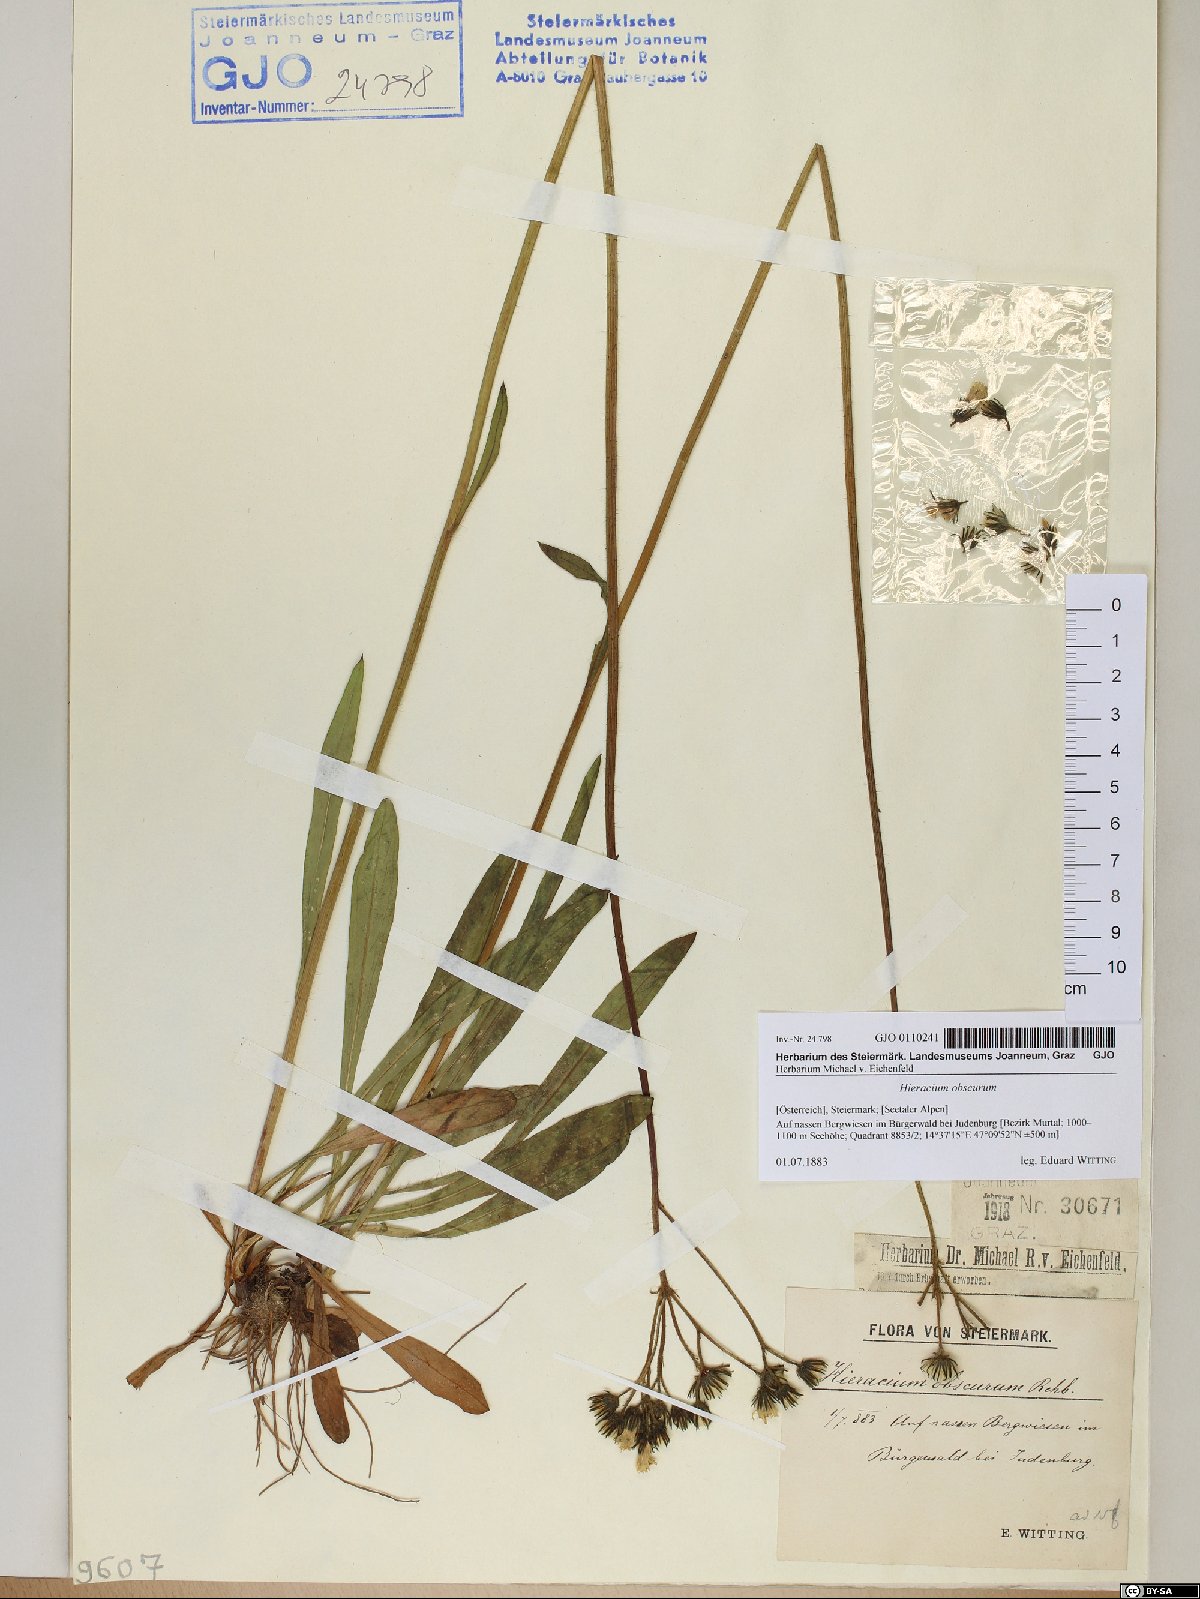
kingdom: Plantae
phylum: Tracheophyta
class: Magnoliopsida
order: Asterales
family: Asteraceae
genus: Pilosella
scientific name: Pilosella piloselloides
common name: Glaucous king-devil
